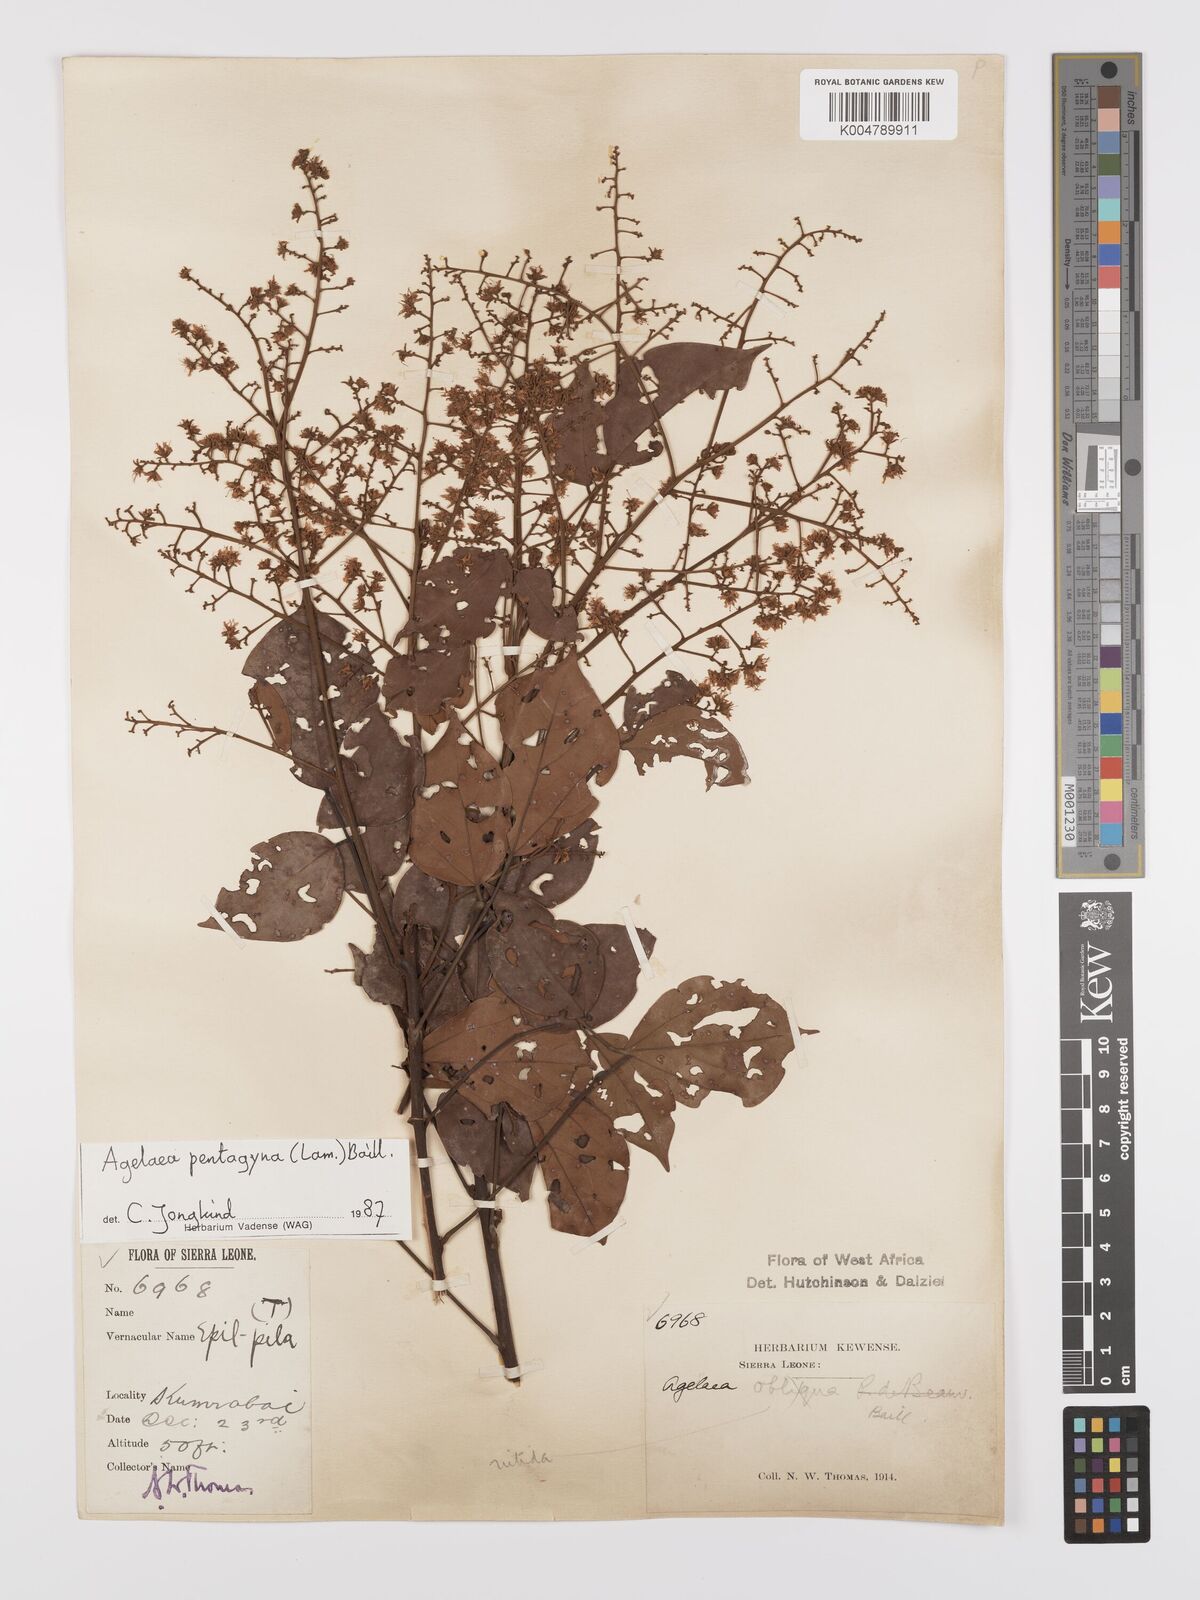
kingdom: Plantae
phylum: Tracheophyta
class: Magnoliopsida
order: Oxalidales
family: Connaraceae
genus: Agelaea
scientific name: Agelaea pentagyna
